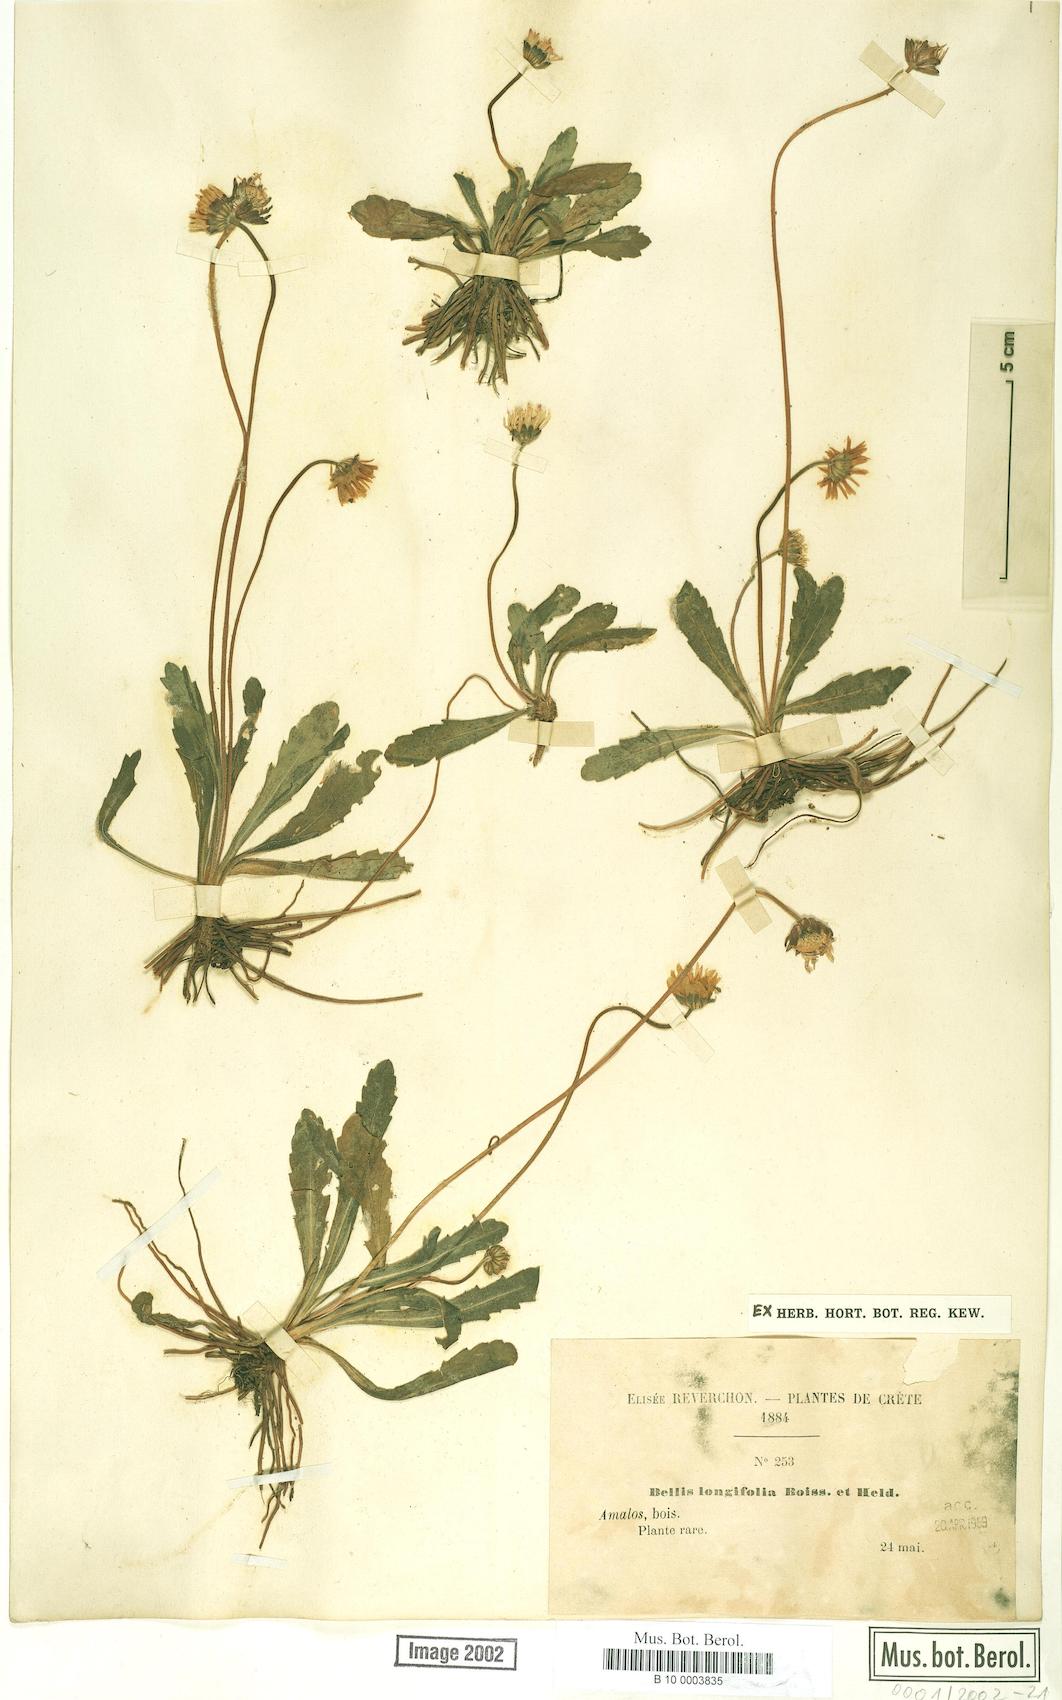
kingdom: Plantae
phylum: Tracheophyta
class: Magnoliopsida
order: Asterales
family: Asteraceae
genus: Bellis
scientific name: Bellis longifolia
